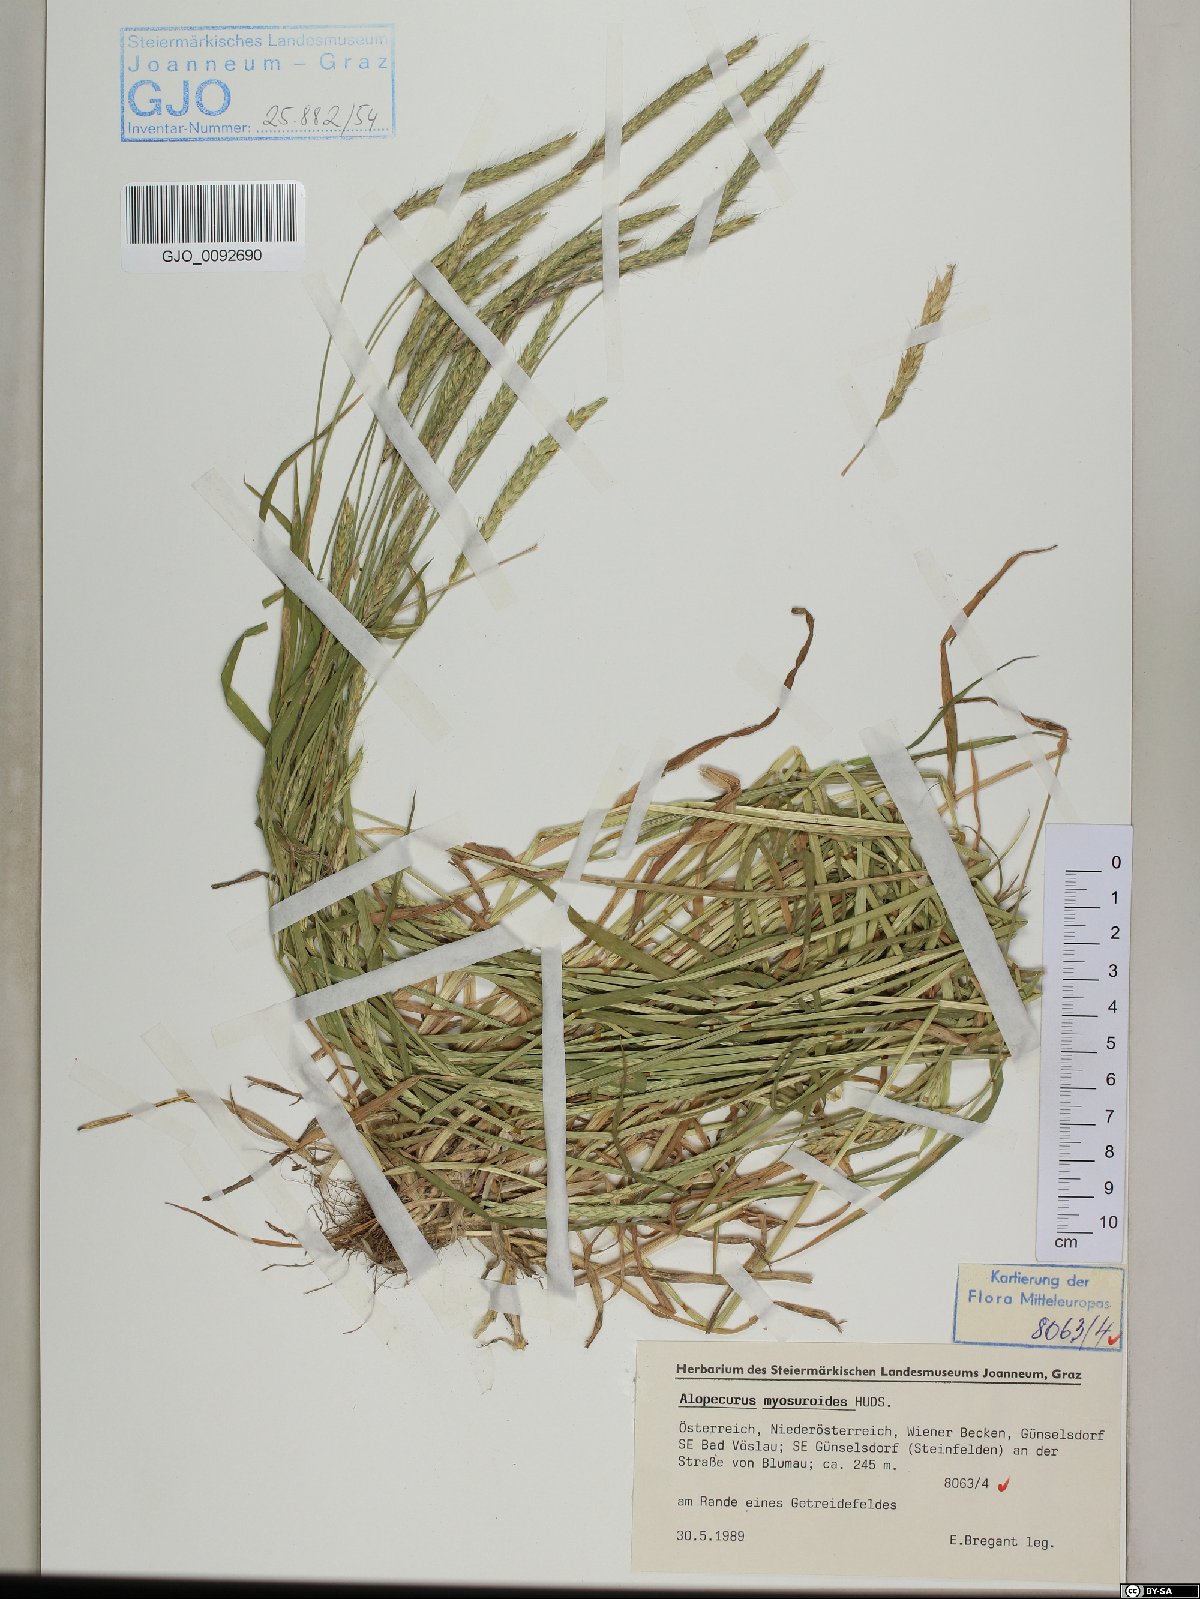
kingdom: Plantae
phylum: Tracheophyta
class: Liliopsida
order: Poales
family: Poaceae
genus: Alopecurus
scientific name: Alopecurus myosuroides
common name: Black-grass
